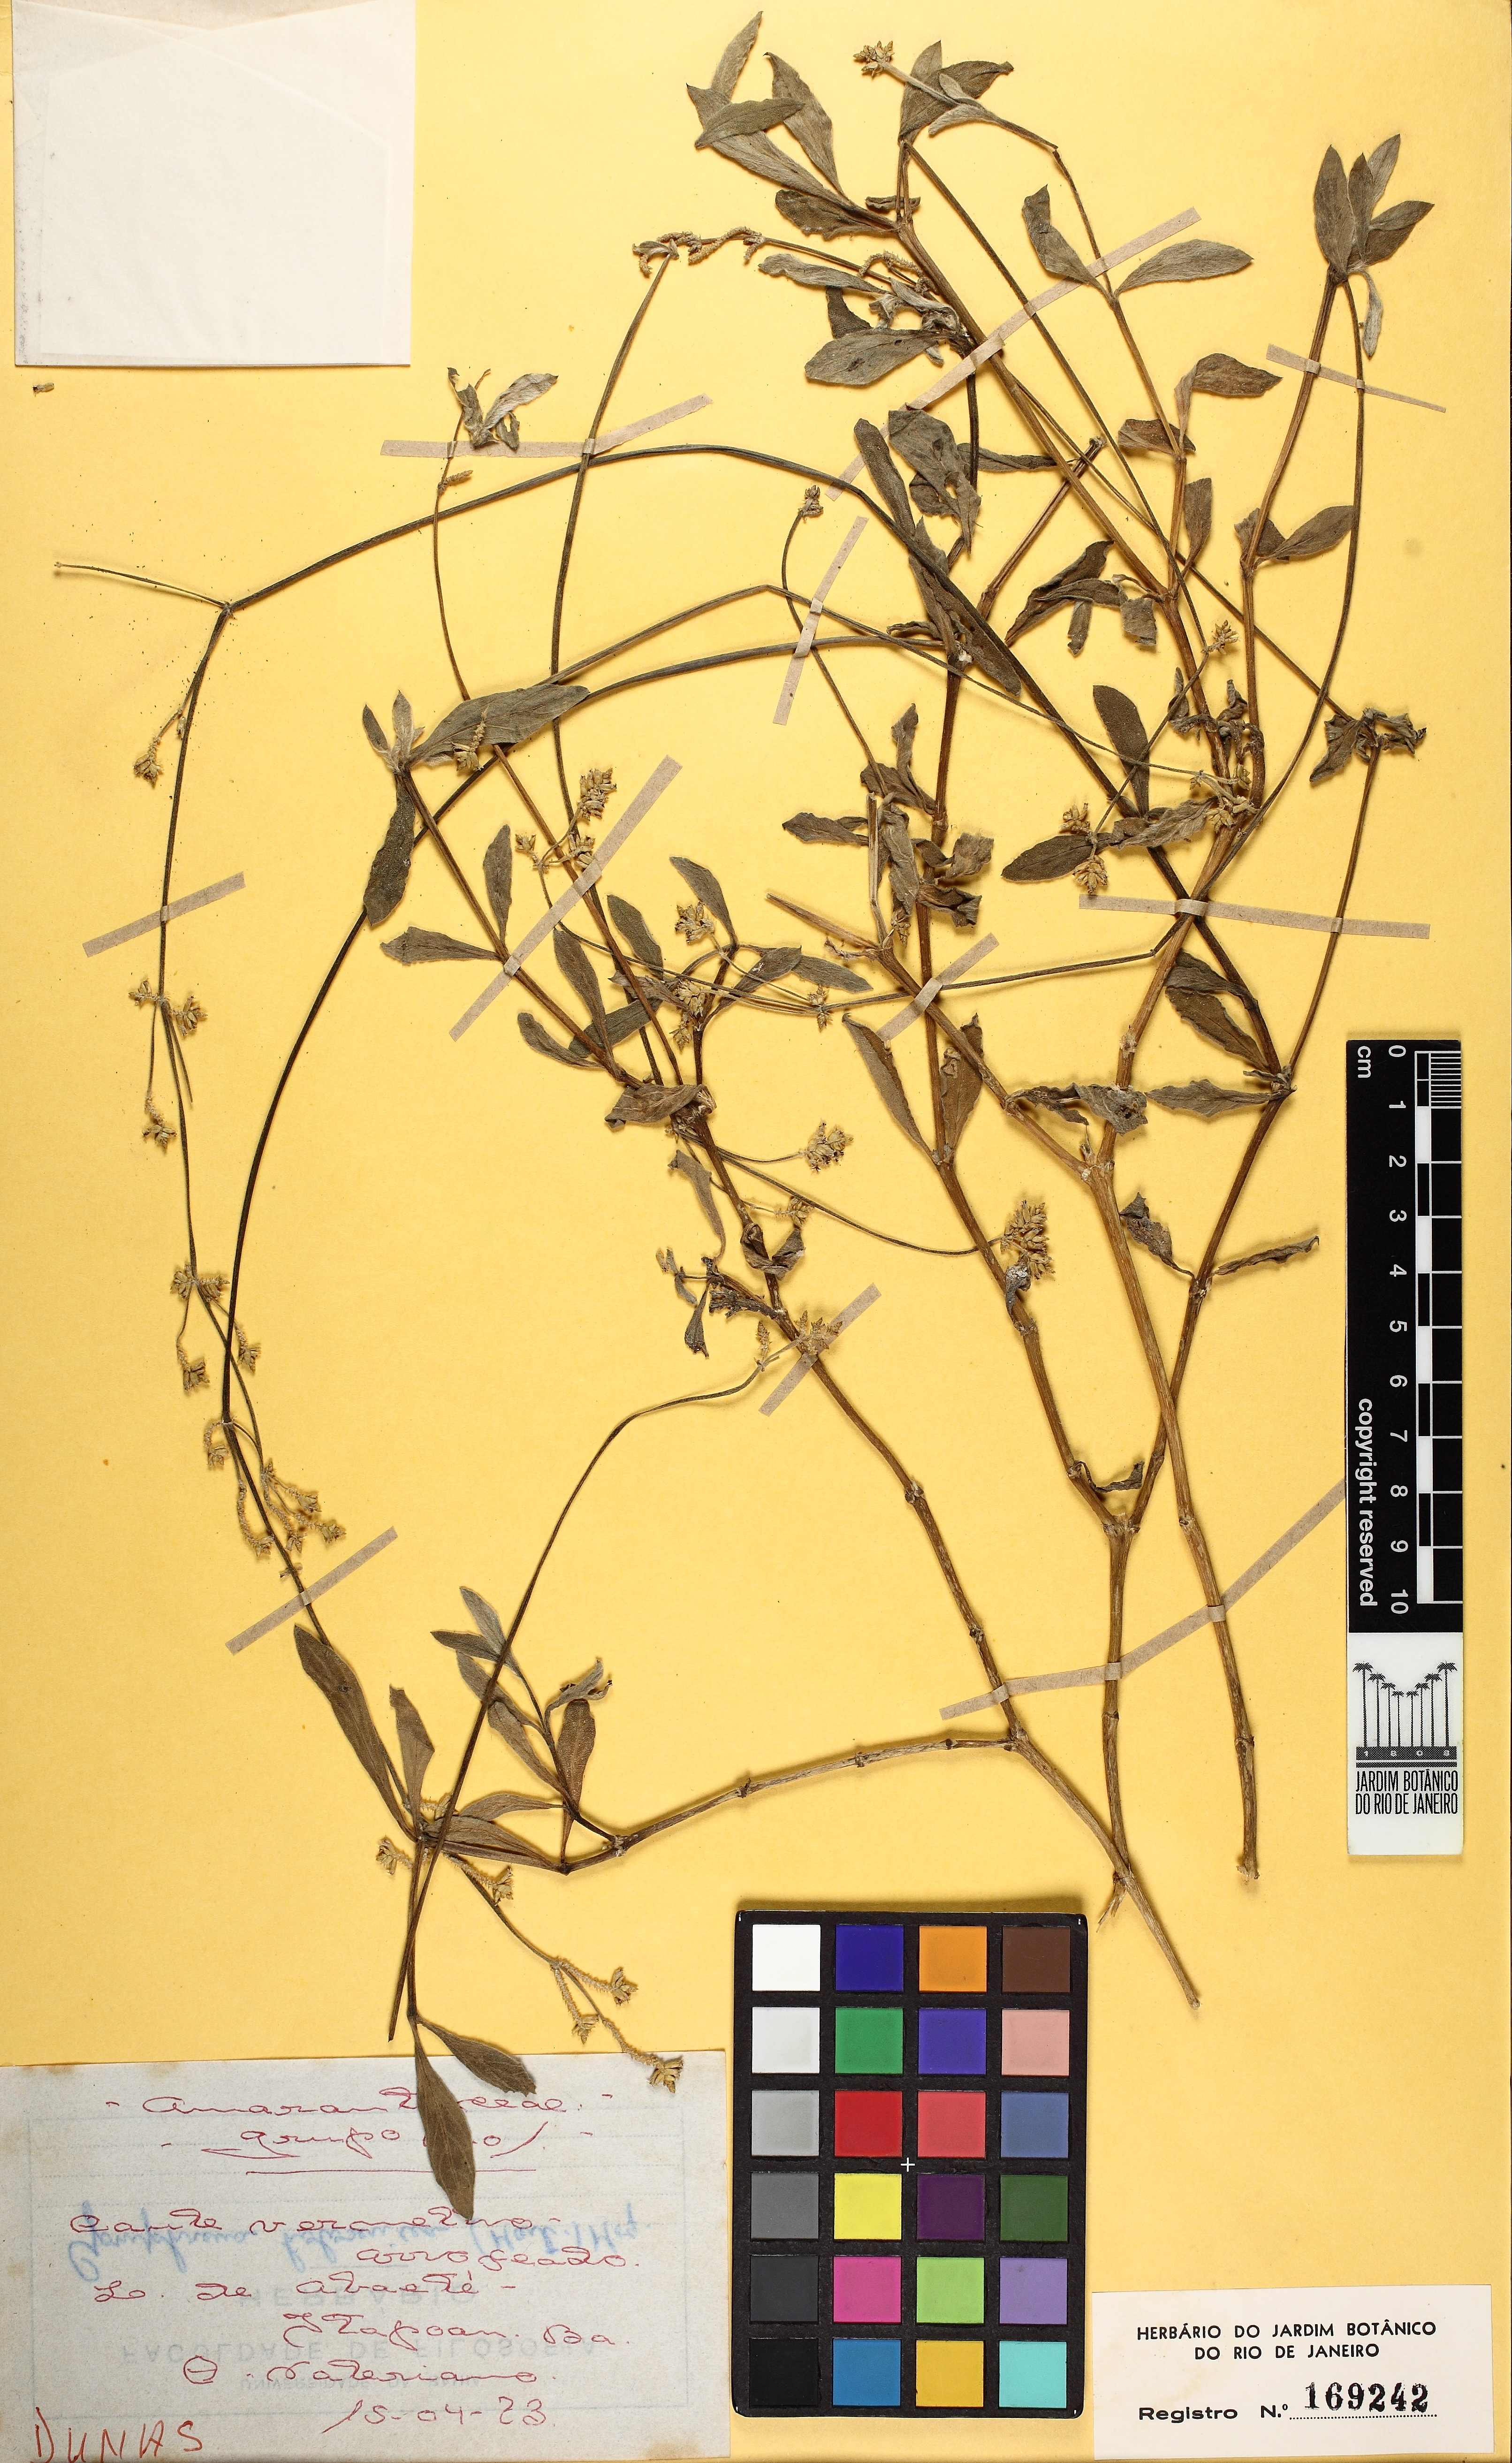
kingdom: Plantae
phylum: Tracheophyta
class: Magnoliopsida
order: Caryophyllales
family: Amaranthaceae
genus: Froelichia
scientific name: Froelichia humboldtiana
